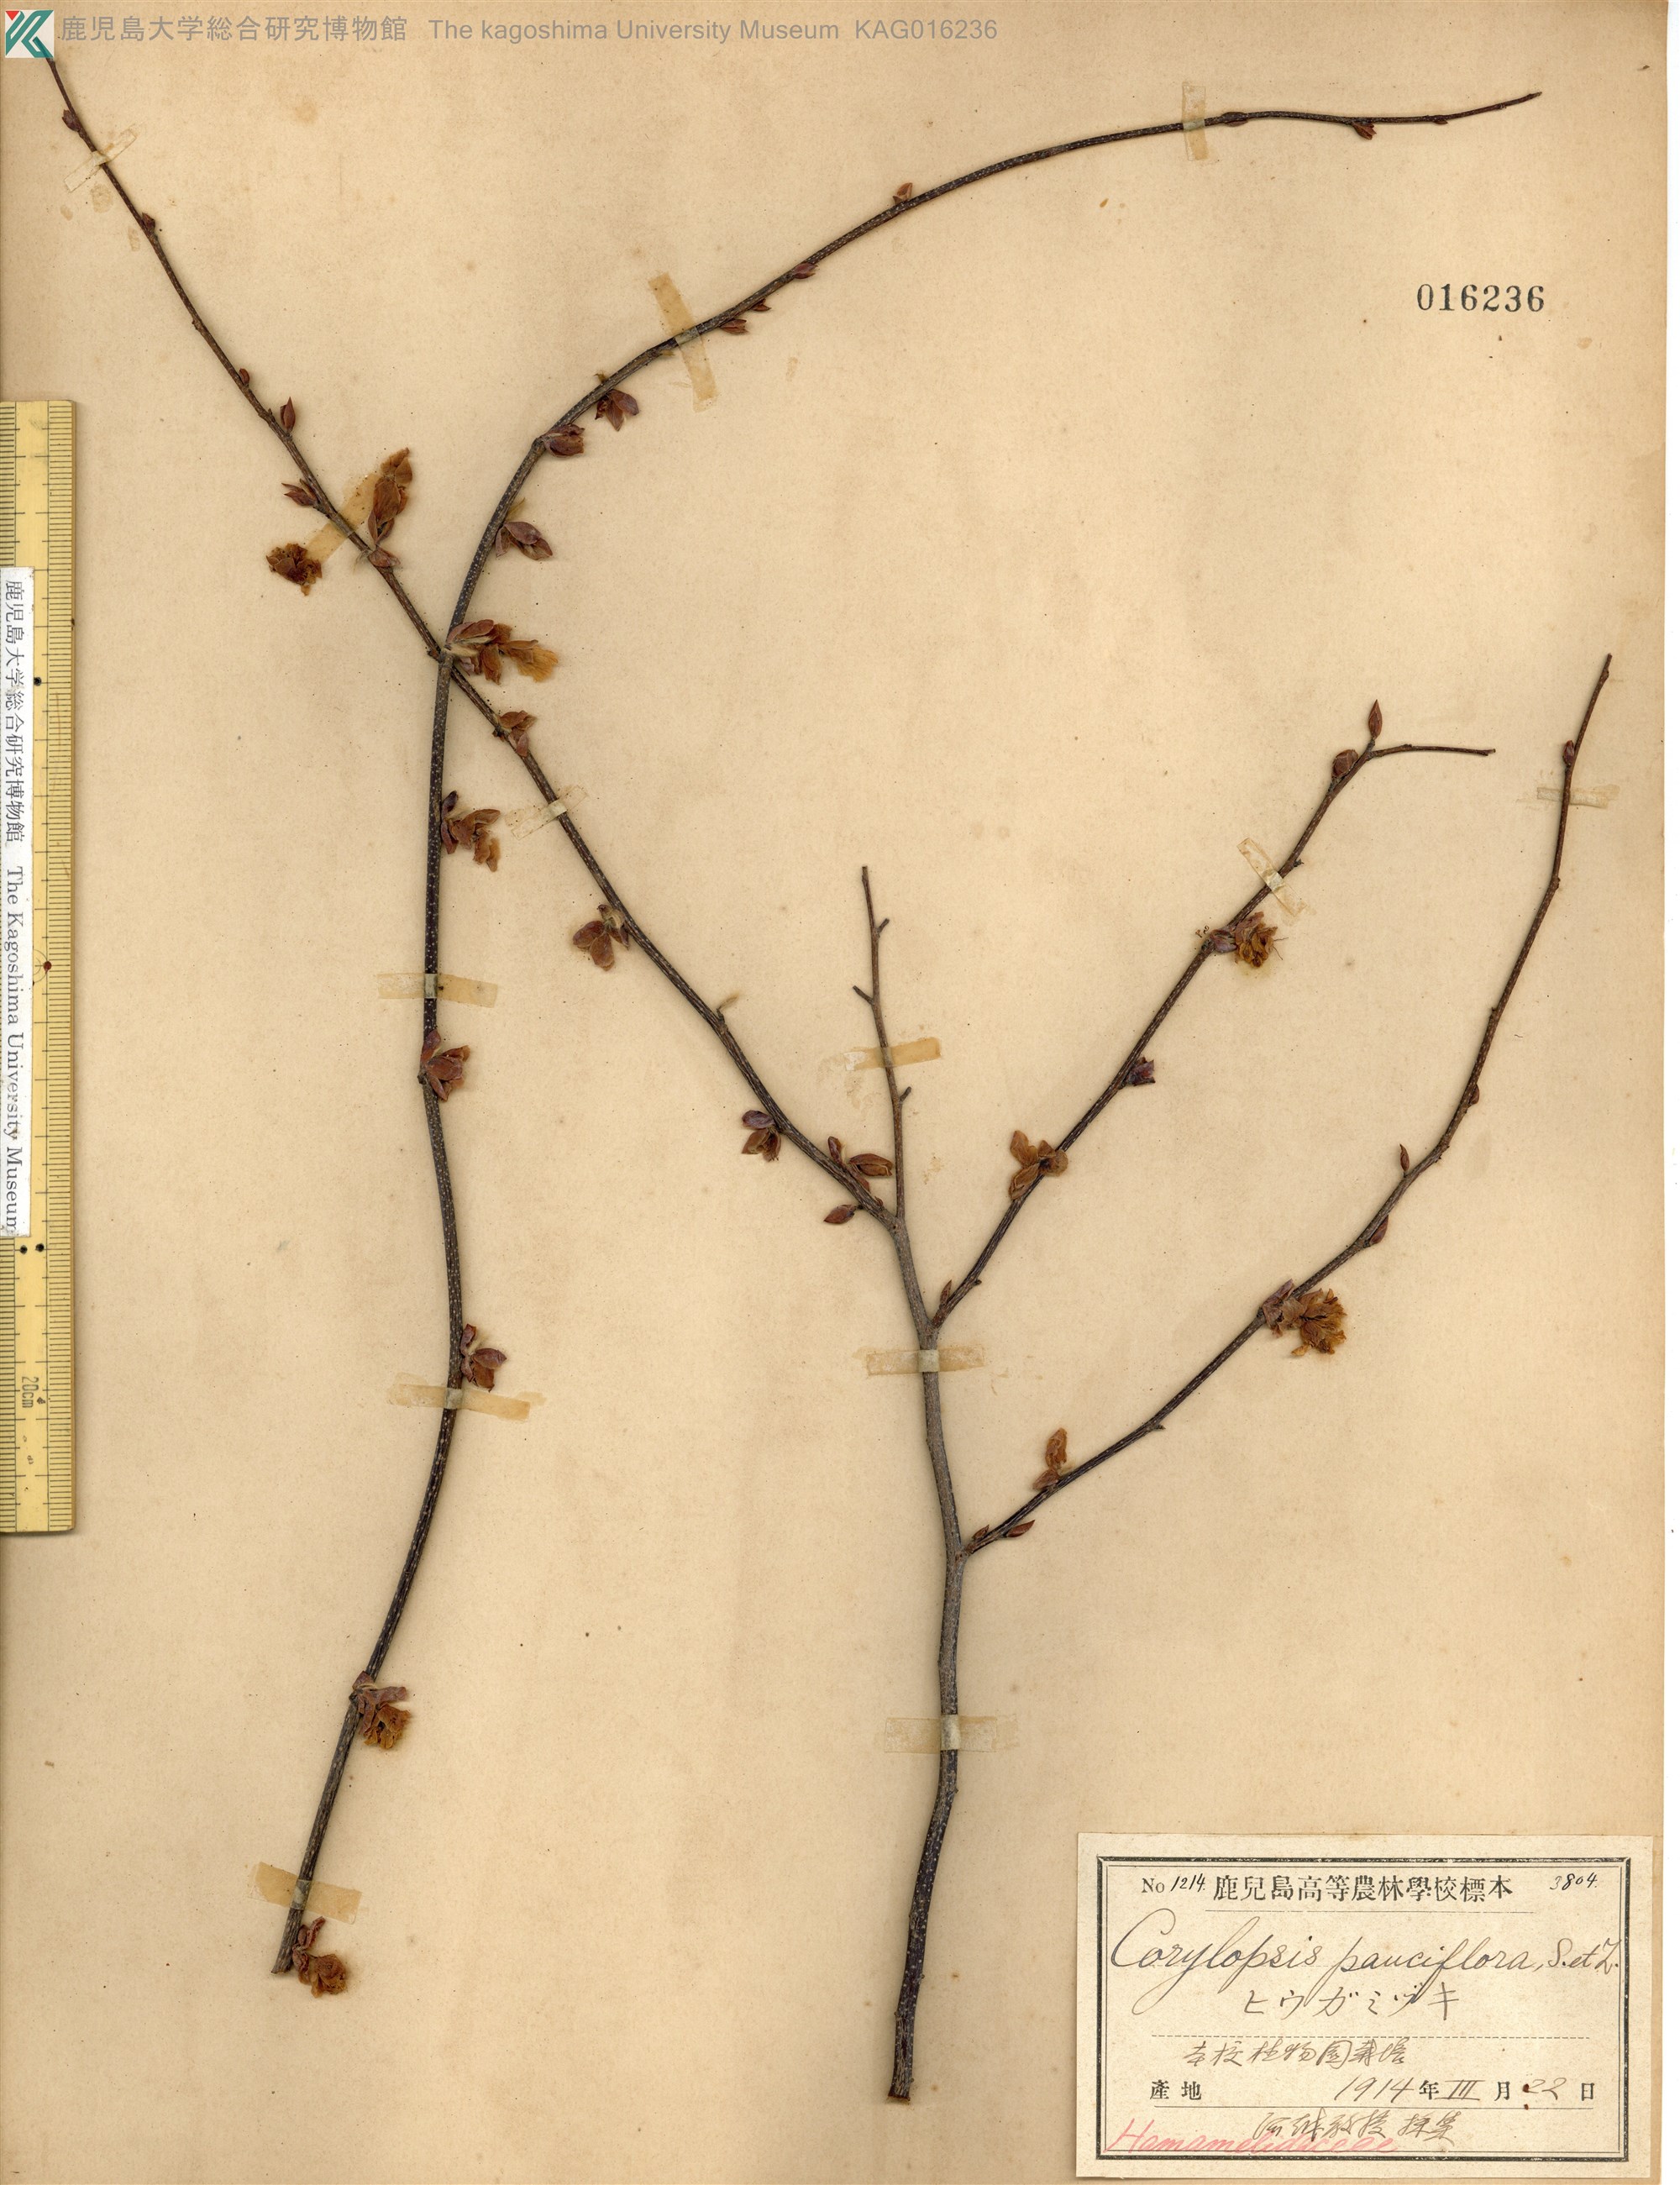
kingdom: Plantae
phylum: Tracheophyta
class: Magnoliopsida
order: Saxifragales
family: Hamamelidaceae
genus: Corylopsis
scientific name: Corylopsis pauciflora
